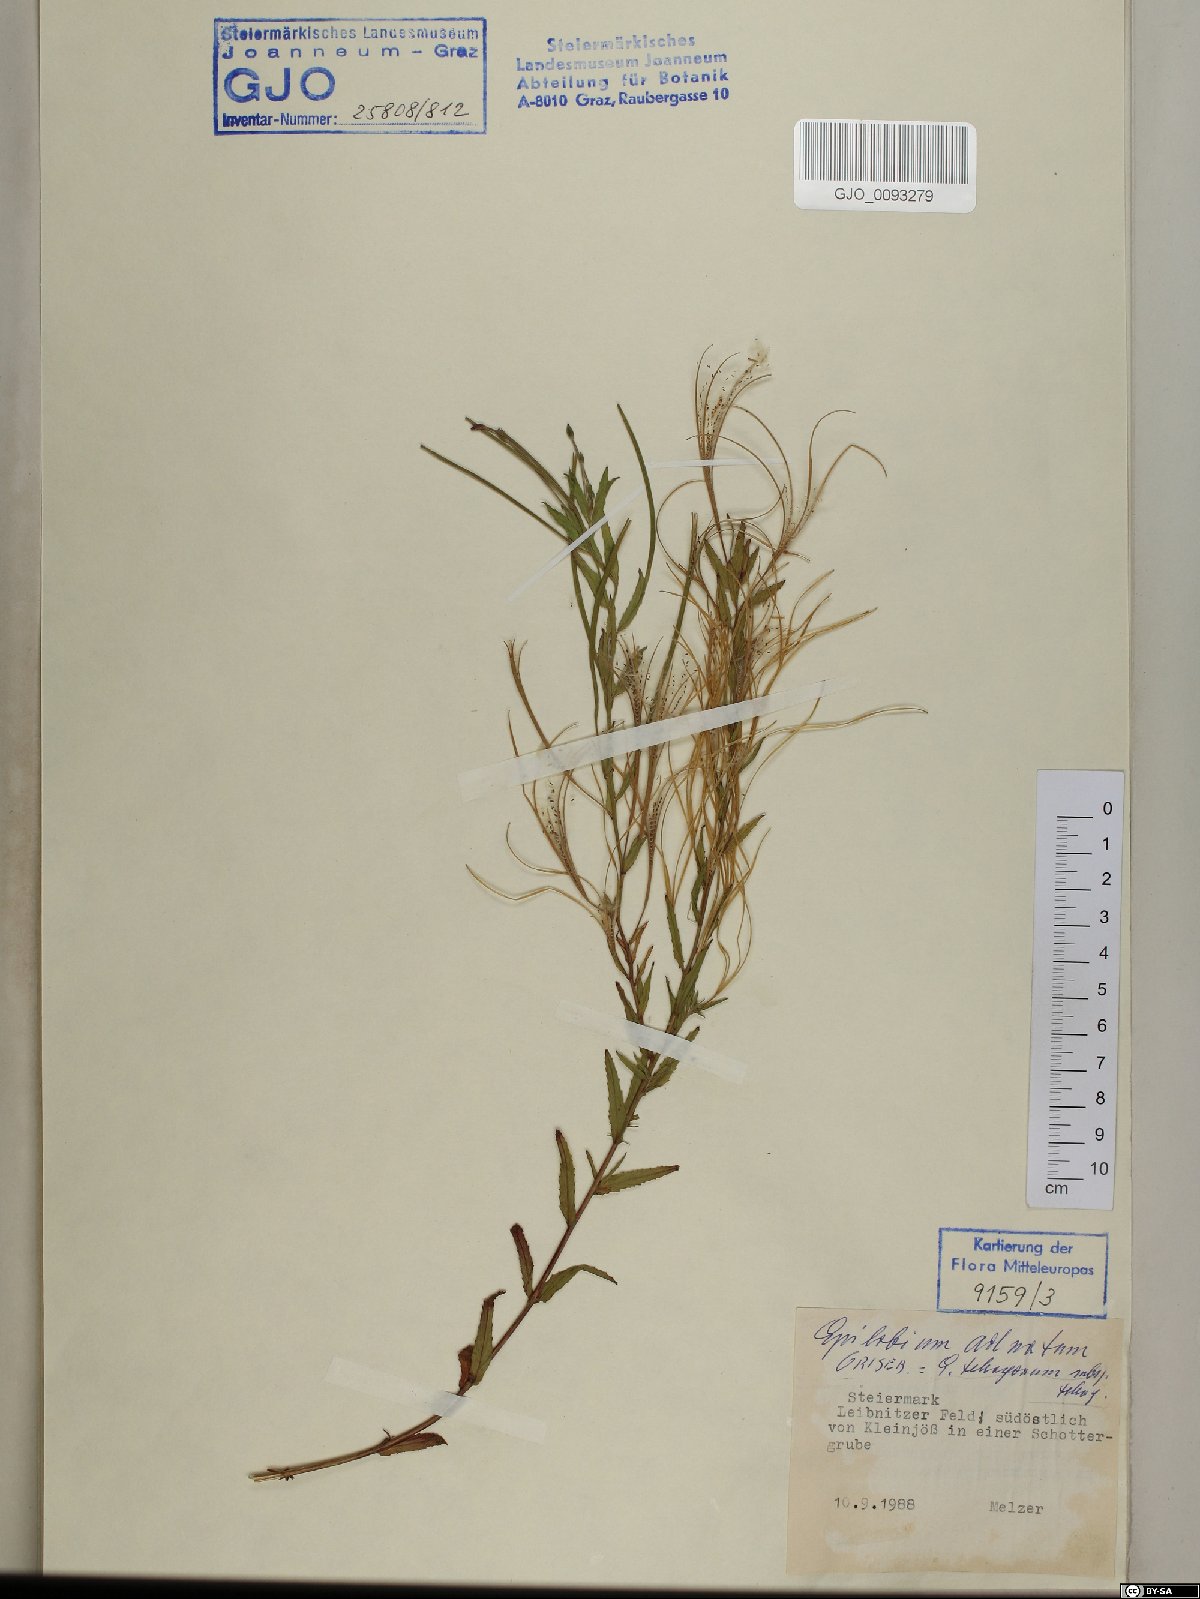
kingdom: Plantae
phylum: Tracheophyta
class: Magnoliopsida
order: Myrtales
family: Onagraceae
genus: Epilobium
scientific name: Epilobium tetragonum
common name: Square-stemmed willowherb
